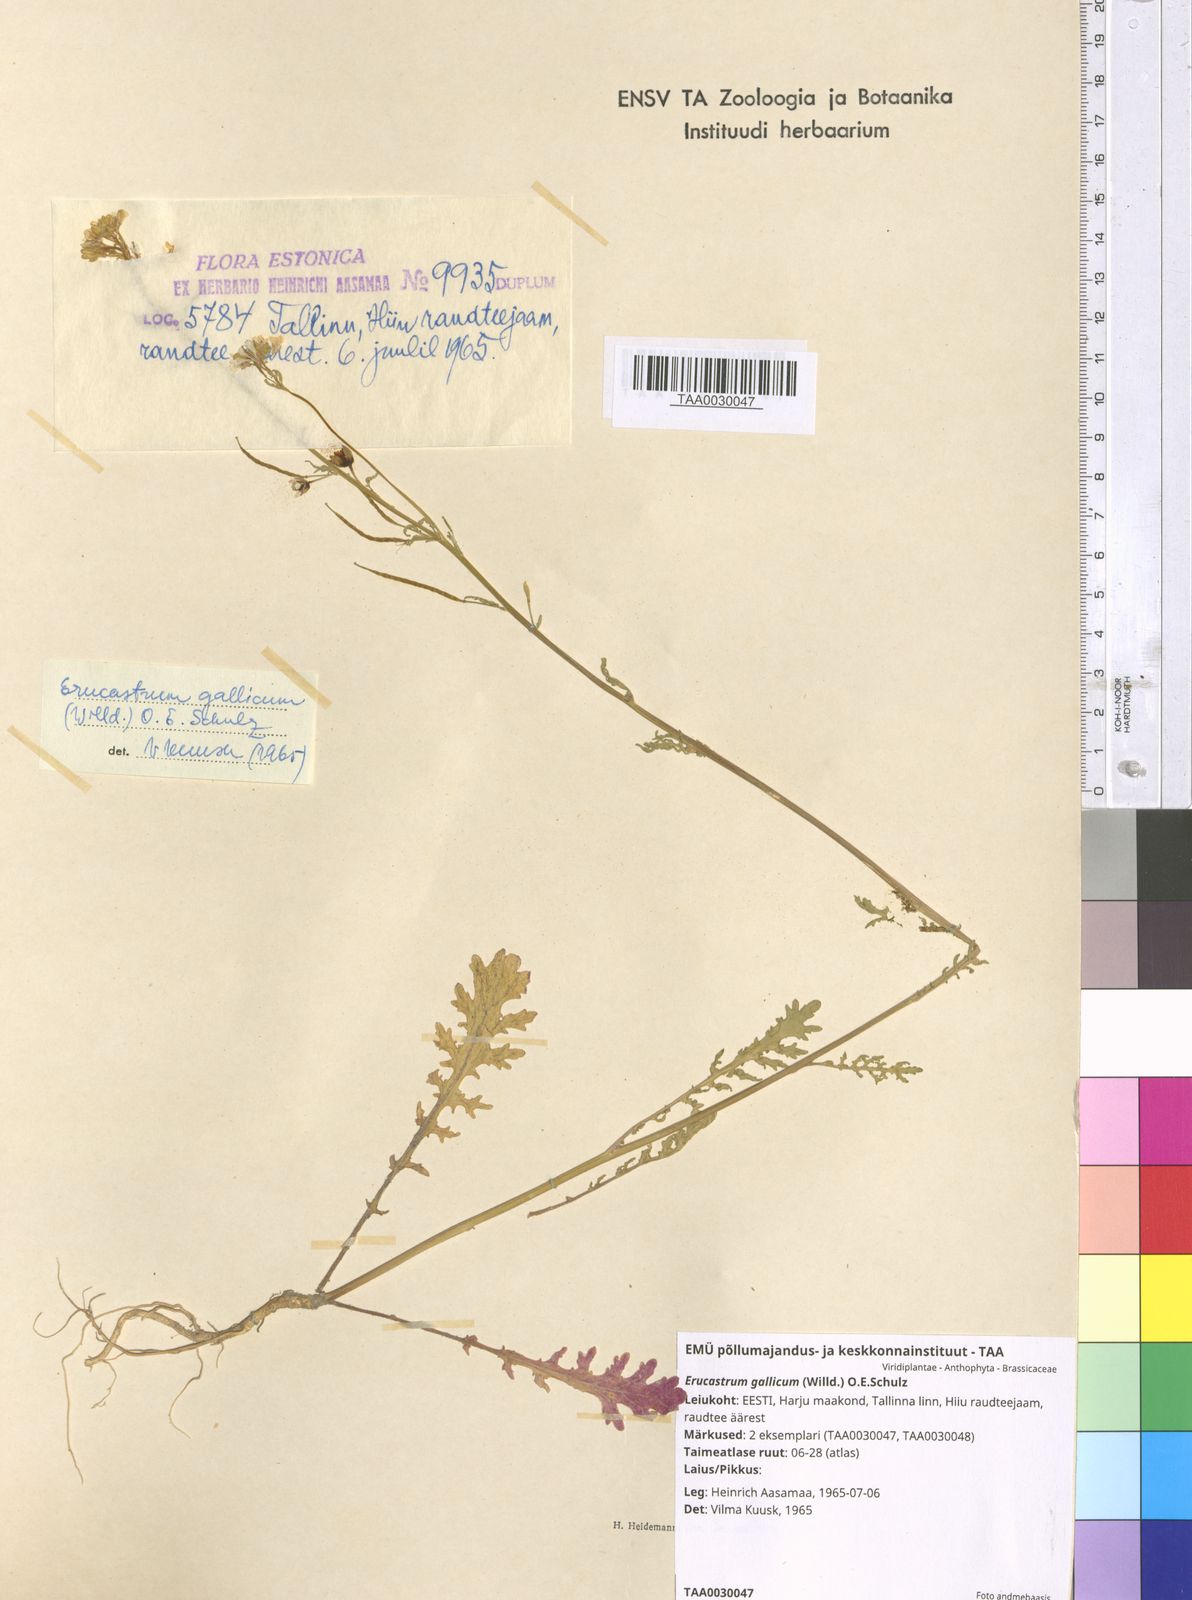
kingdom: Plantae
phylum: Tracheophyta
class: Magnoliopsida
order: Brassicales
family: Brassicaceae
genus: Erucastrum
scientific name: Erucastrum gallicum
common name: Hairy rocket
